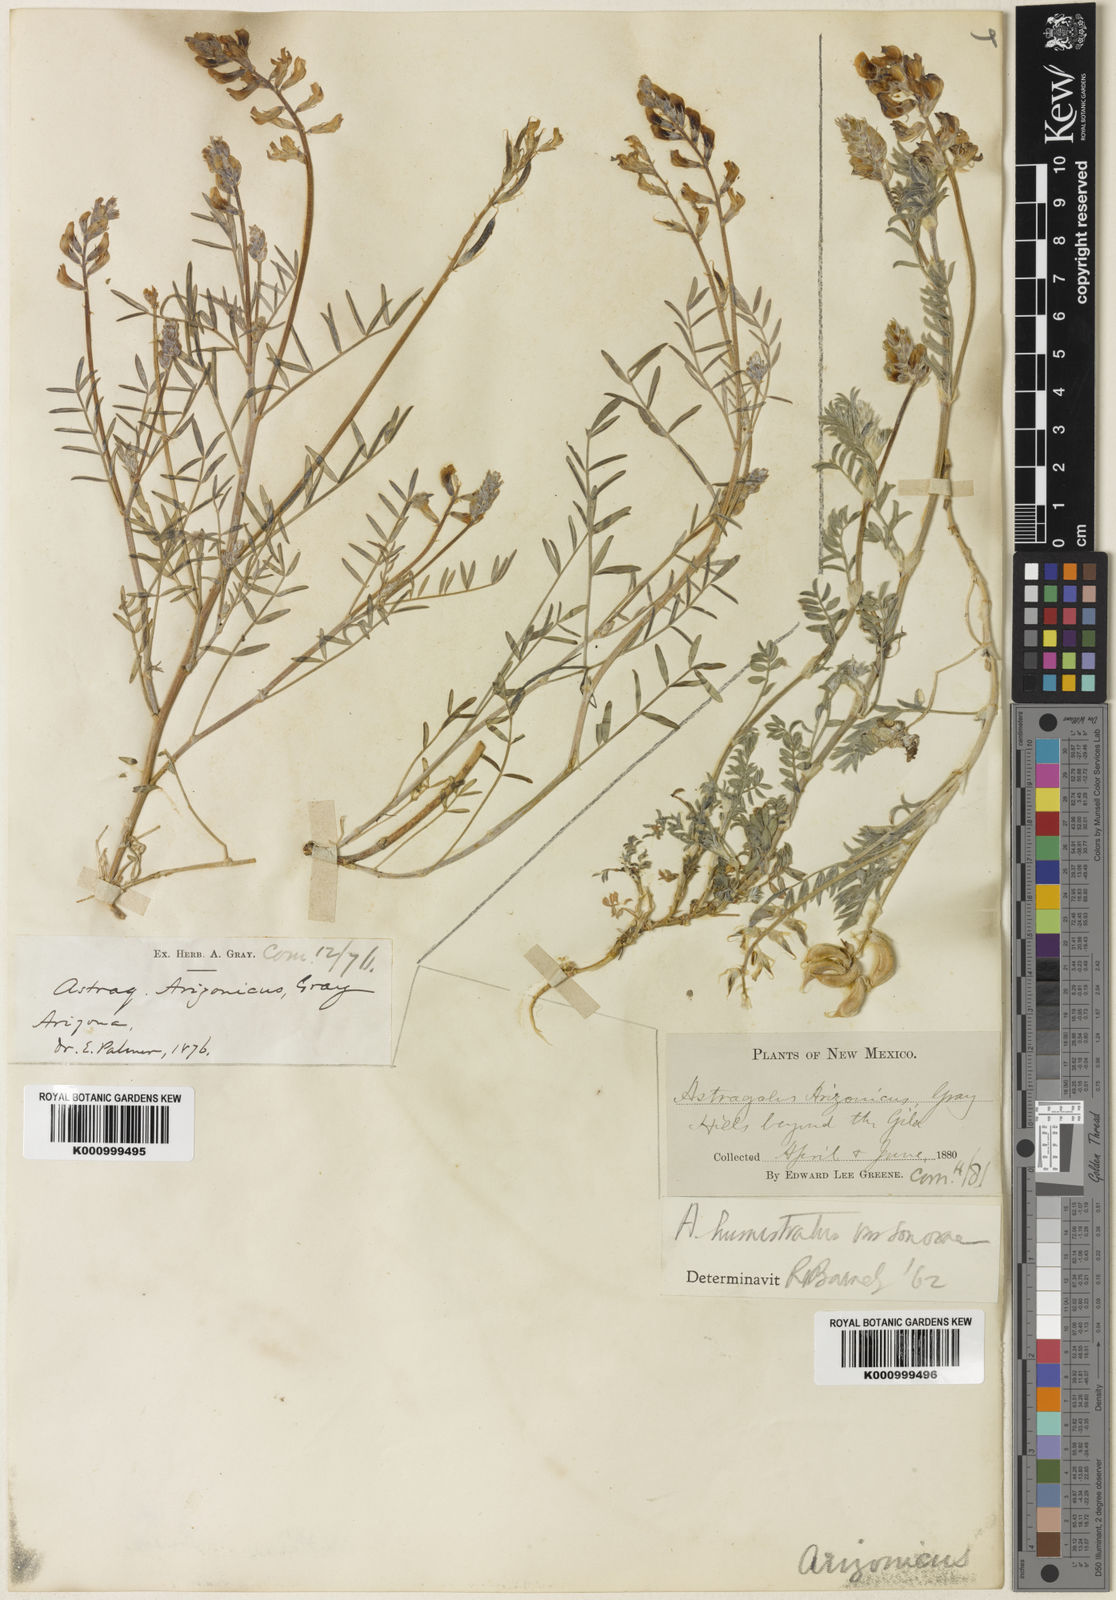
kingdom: Plantae
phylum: Tracheophyta
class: Magnoliopsida
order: Fabales
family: Fabaceae
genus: Astragalus
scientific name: Astragalus arizonicus
